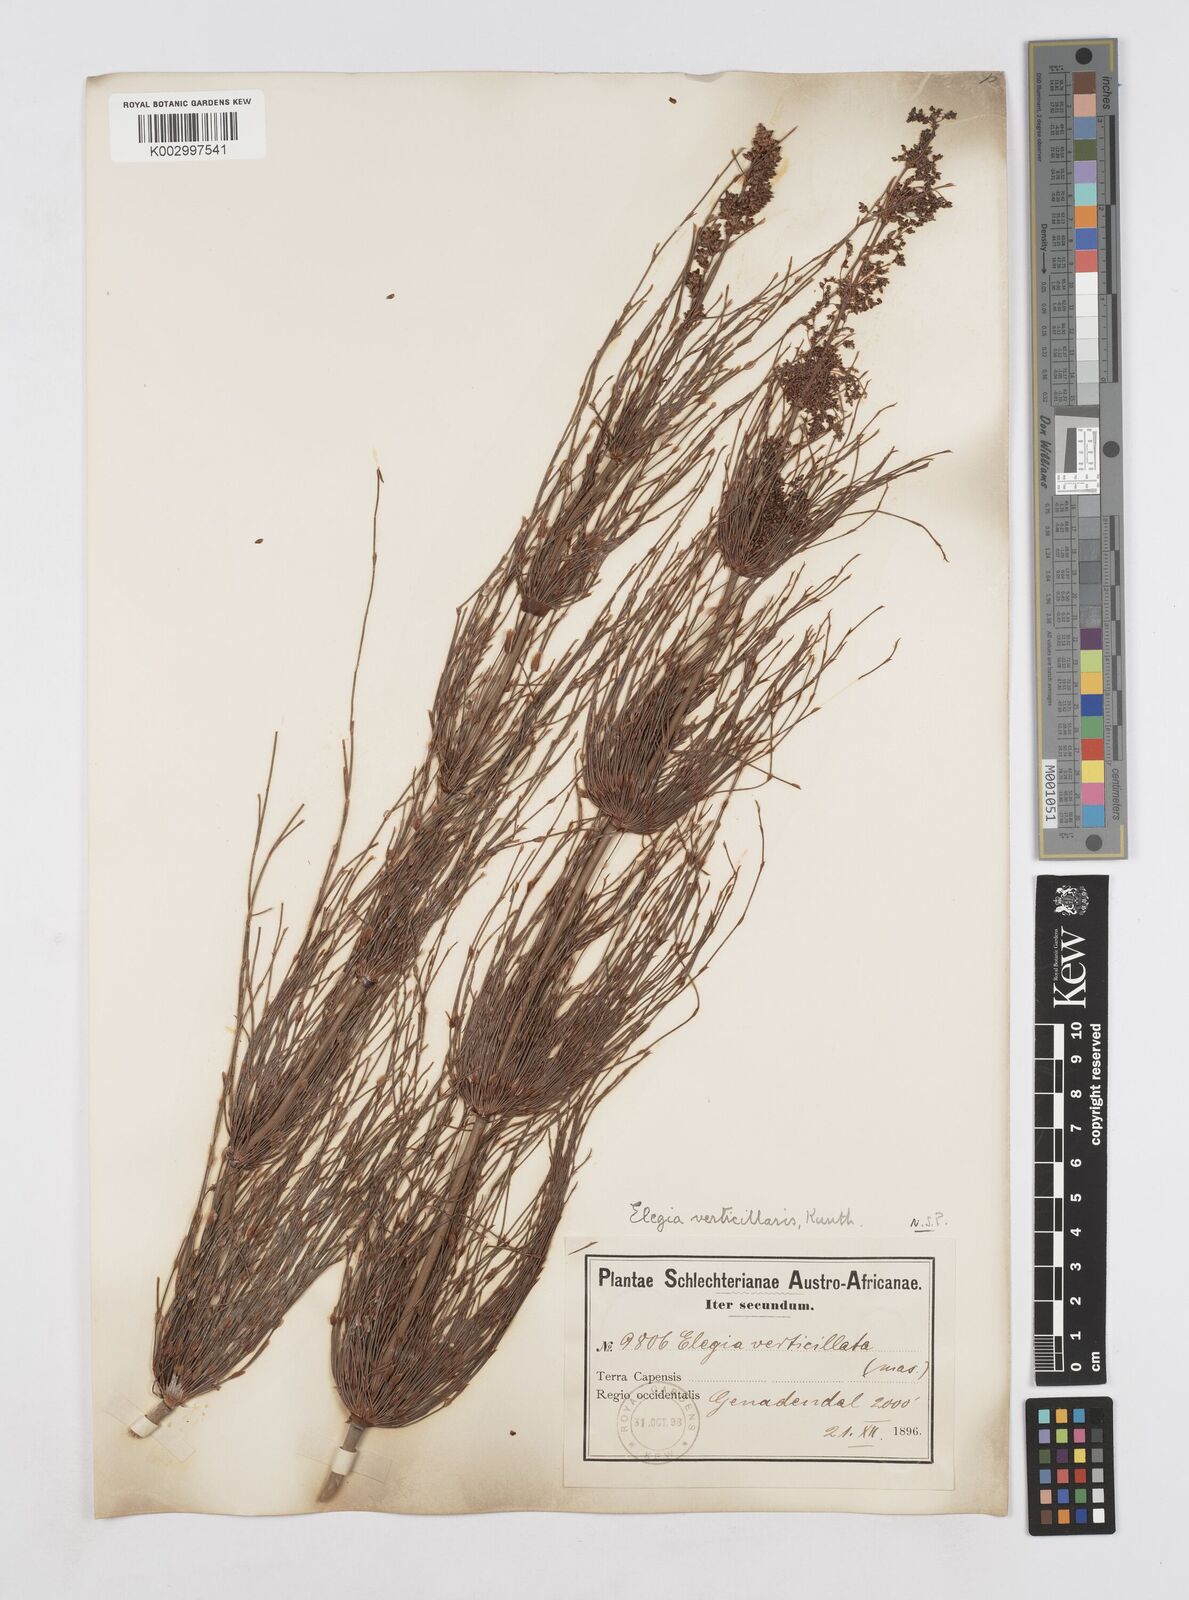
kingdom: Plantae
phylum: Tracheophyta
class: Liliopsida
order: Poales
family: Restionaceae
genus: Elegia
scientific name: Elegia capensis
